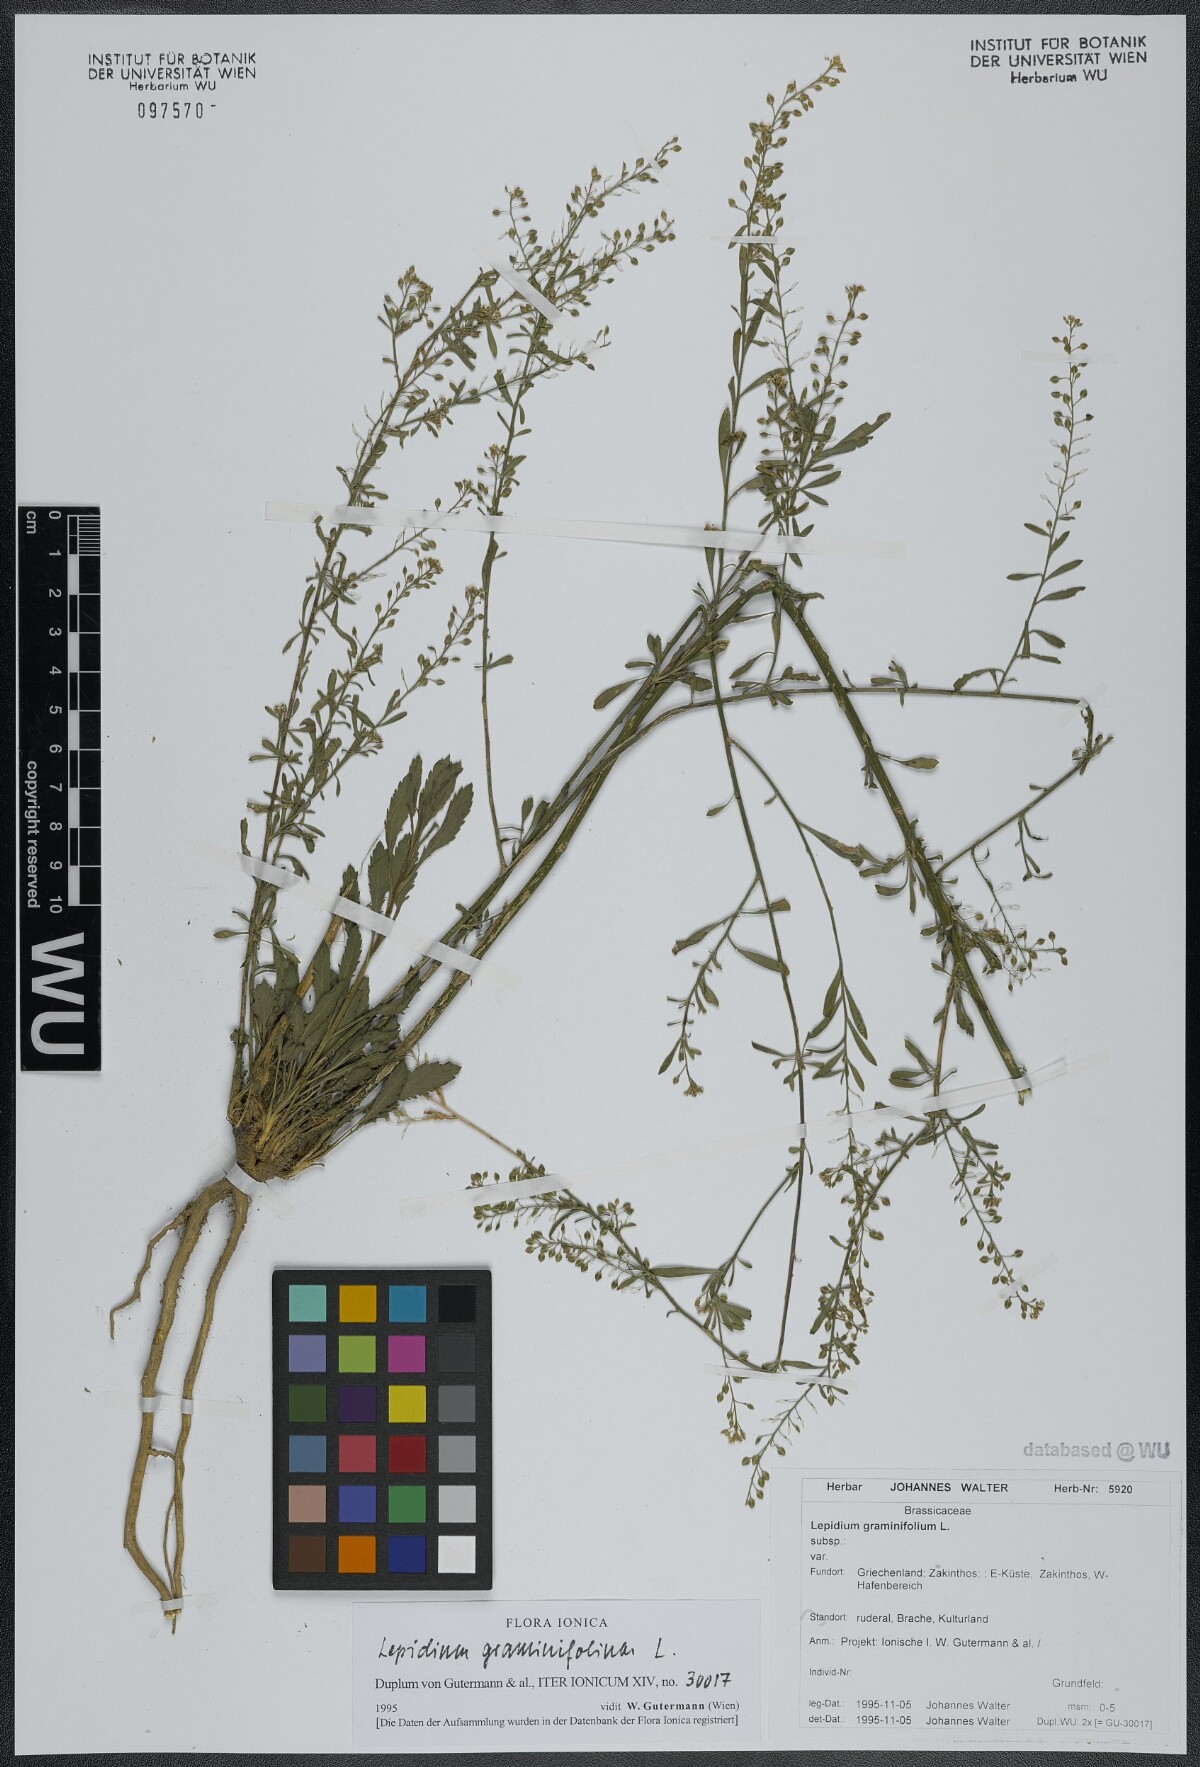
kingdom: Plantae
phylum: Tracheophyta
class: Magnoliopsida
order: Brassicales
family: Brassicaceae
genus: Lepidium
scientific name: Lepidium graminifolium
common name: Tall pepperwort
